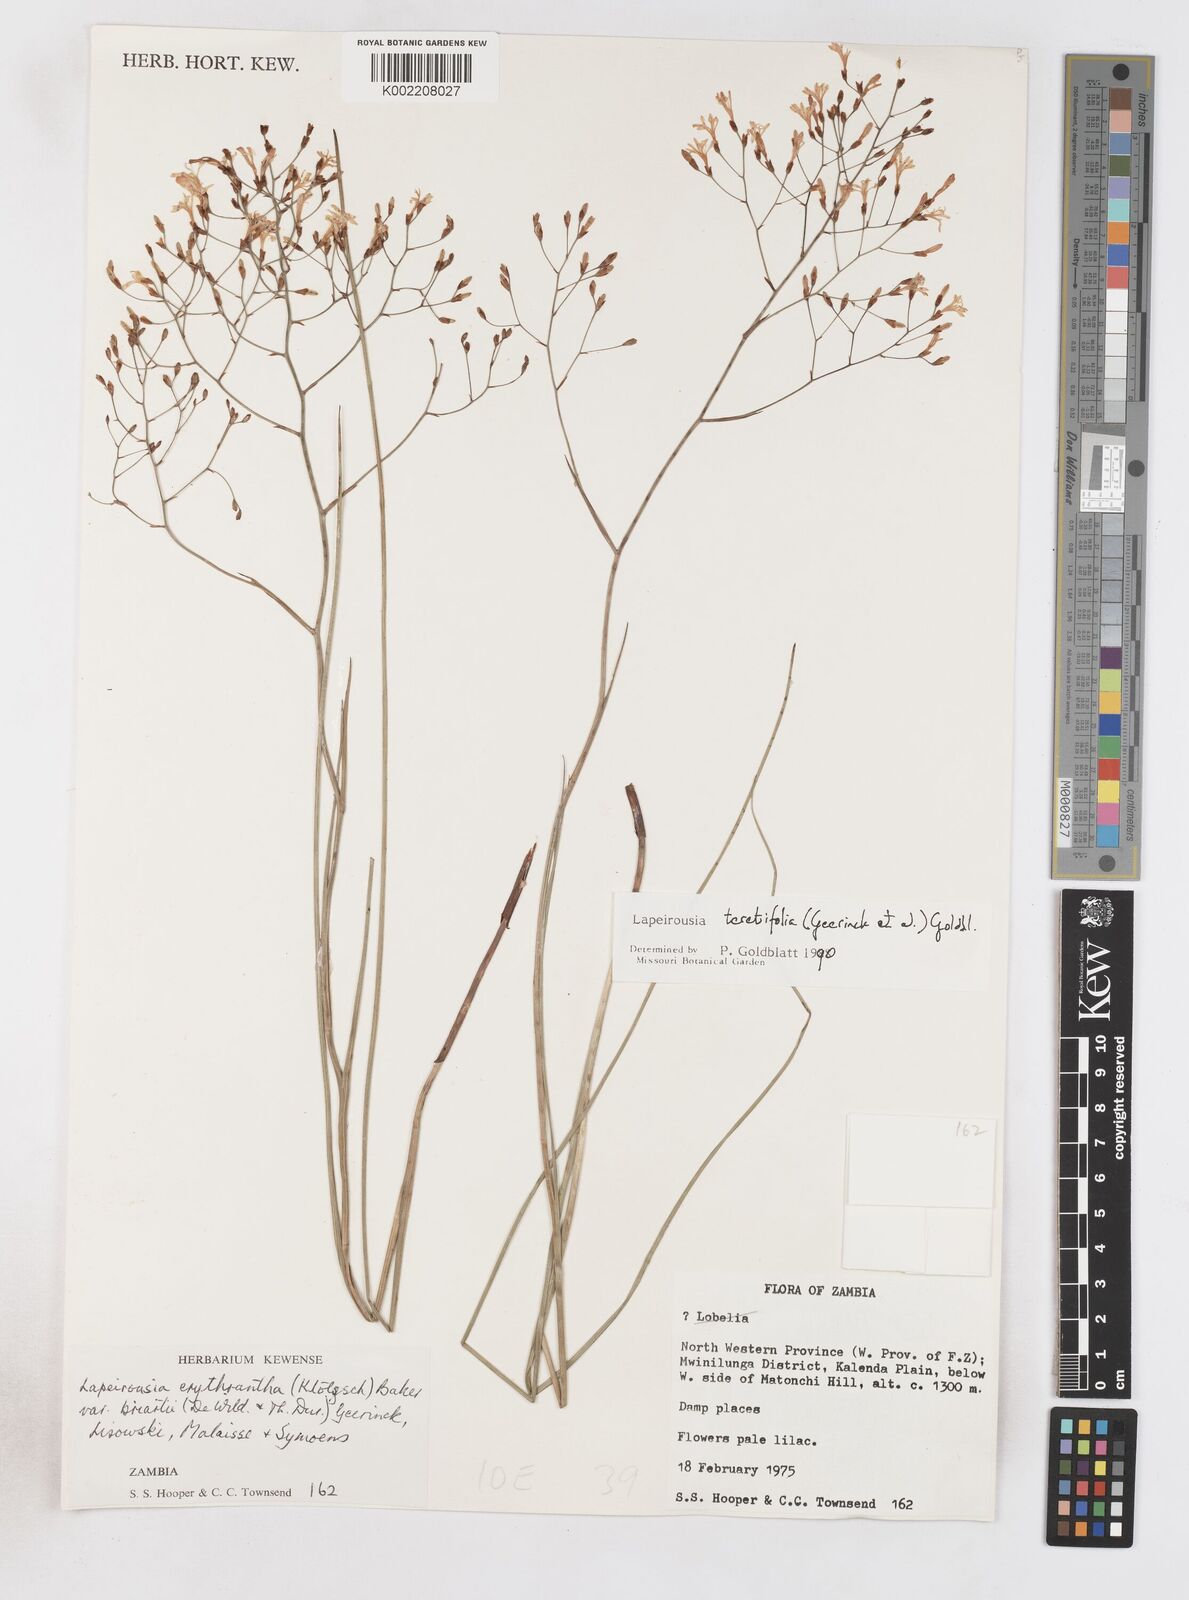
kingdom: Plantae
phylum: Tracheophyta
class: Liliopsida
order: Asparagales
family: Iridaceae
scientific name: Iridaceae
